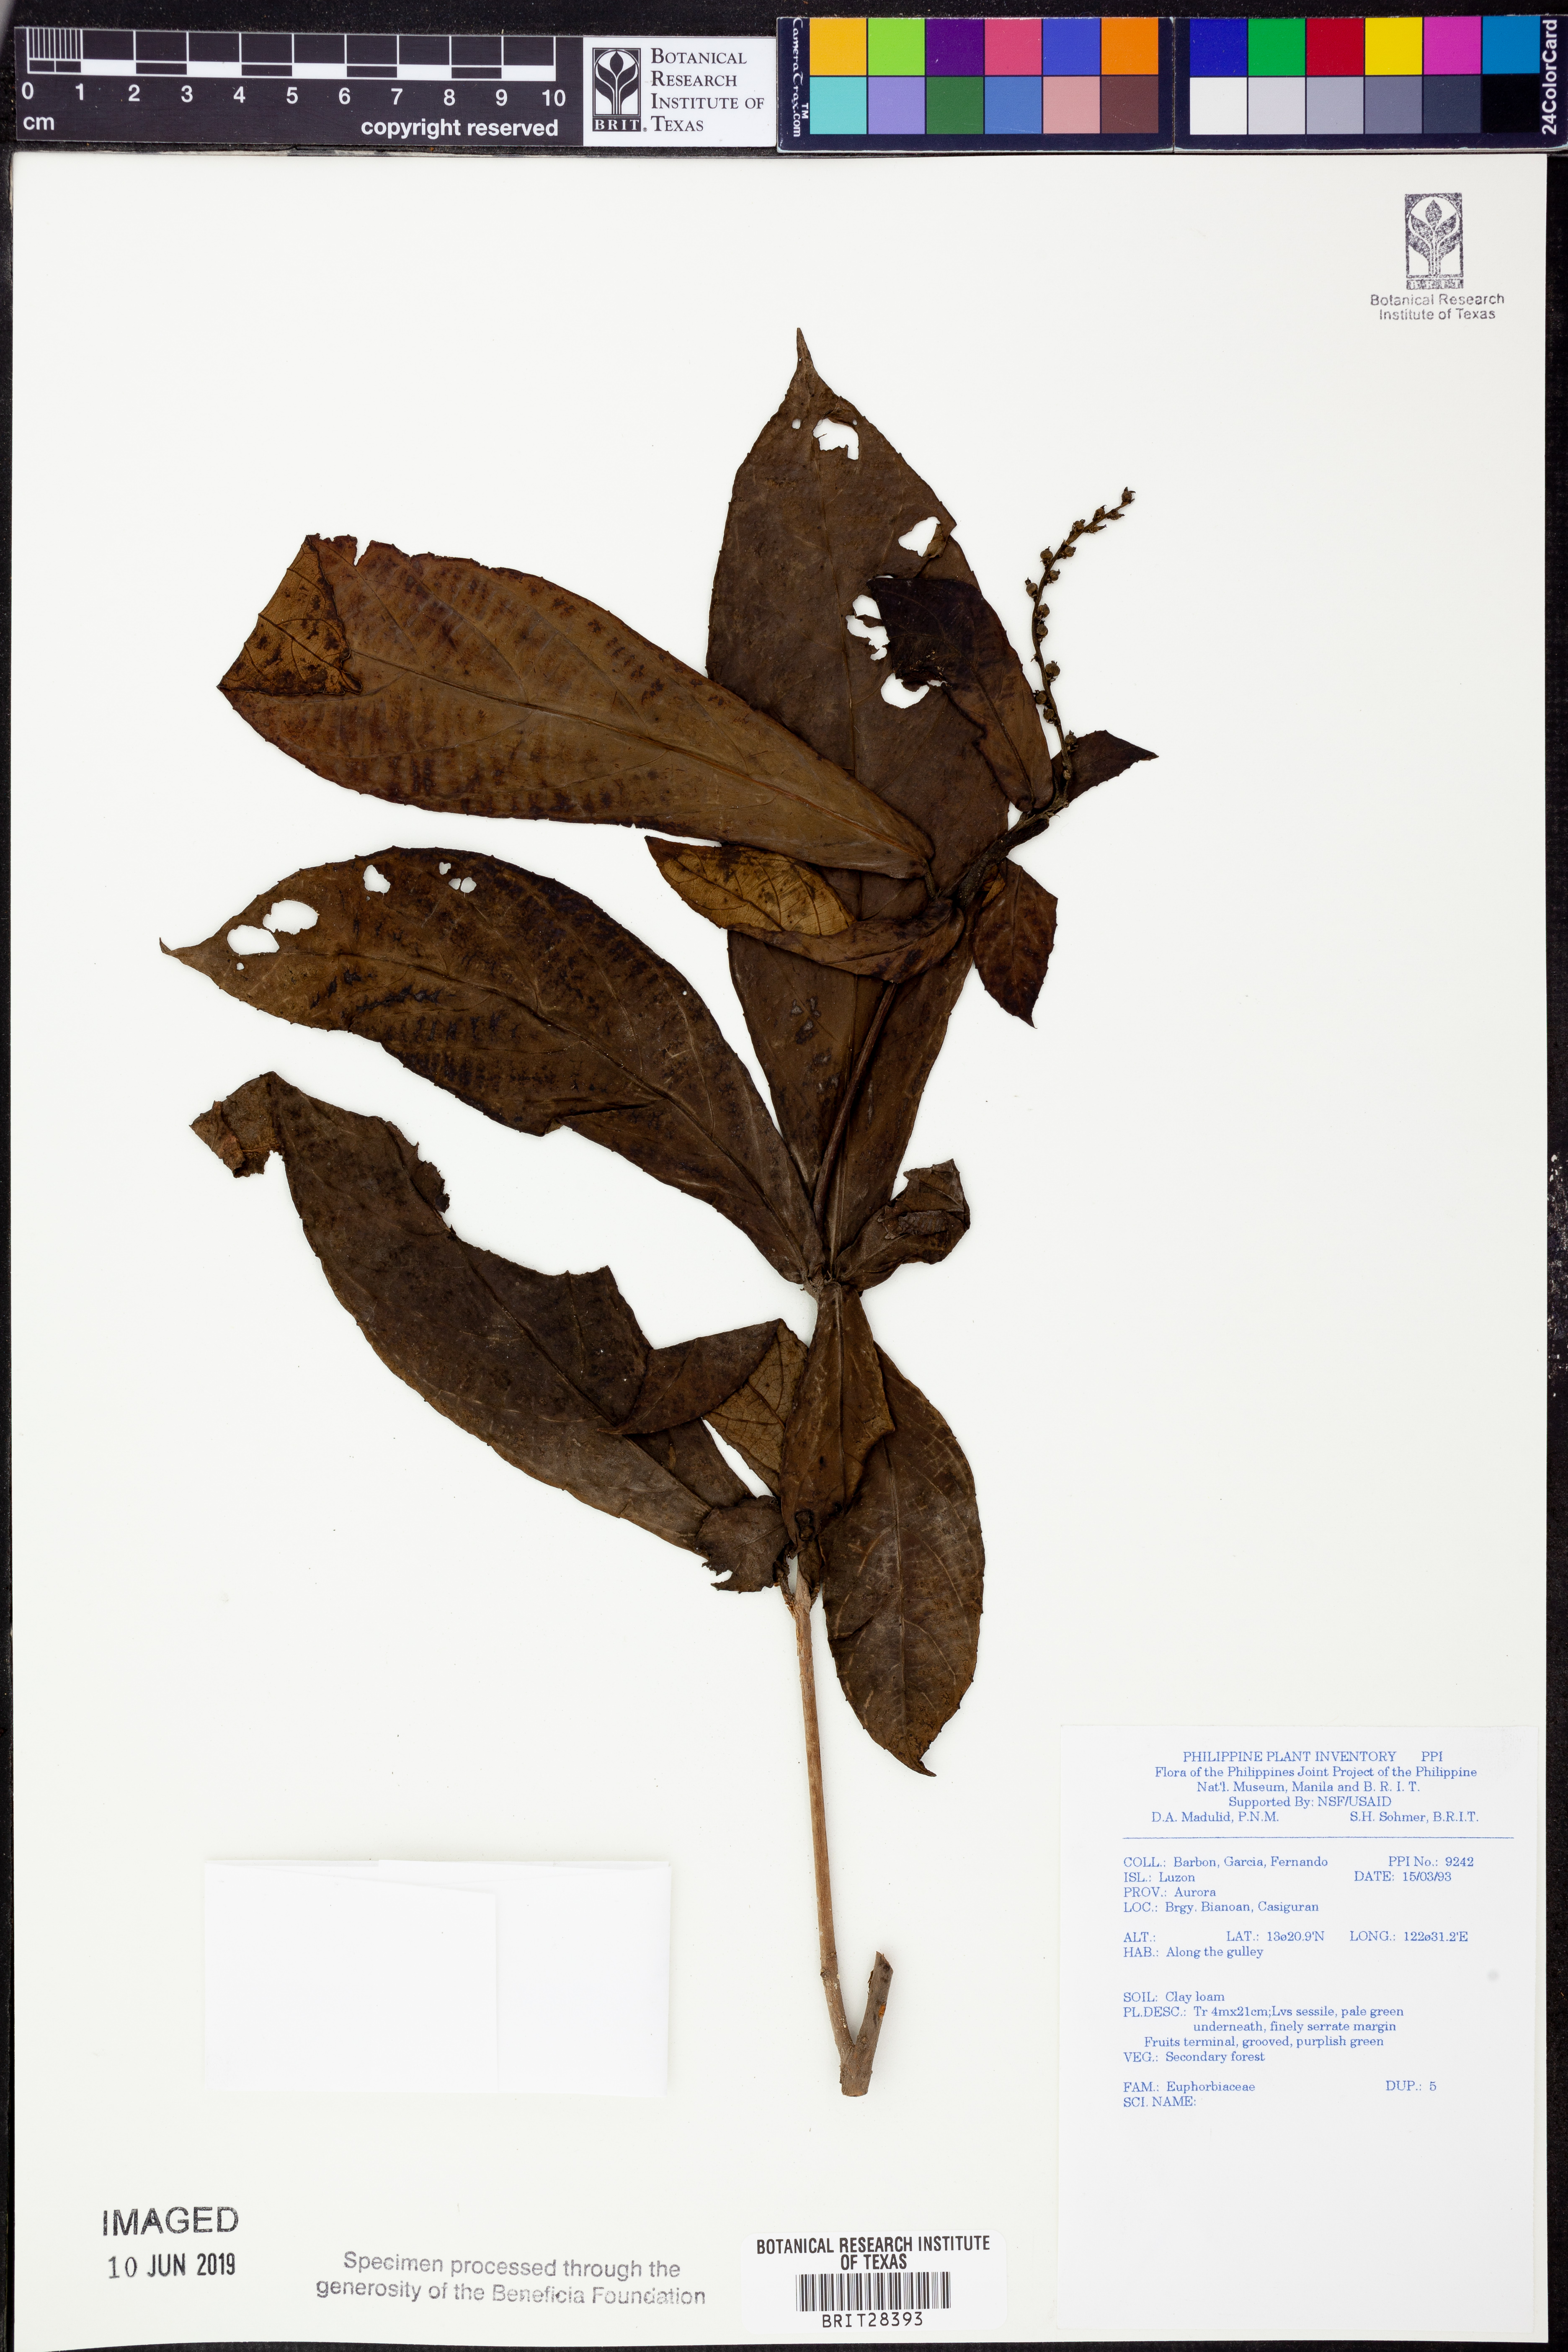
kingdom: Plantae
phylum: Tracheophyta
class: Magnoliopsida
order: Malpighiales
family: Euphorbiaceae
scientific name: Euphorbiaceae
